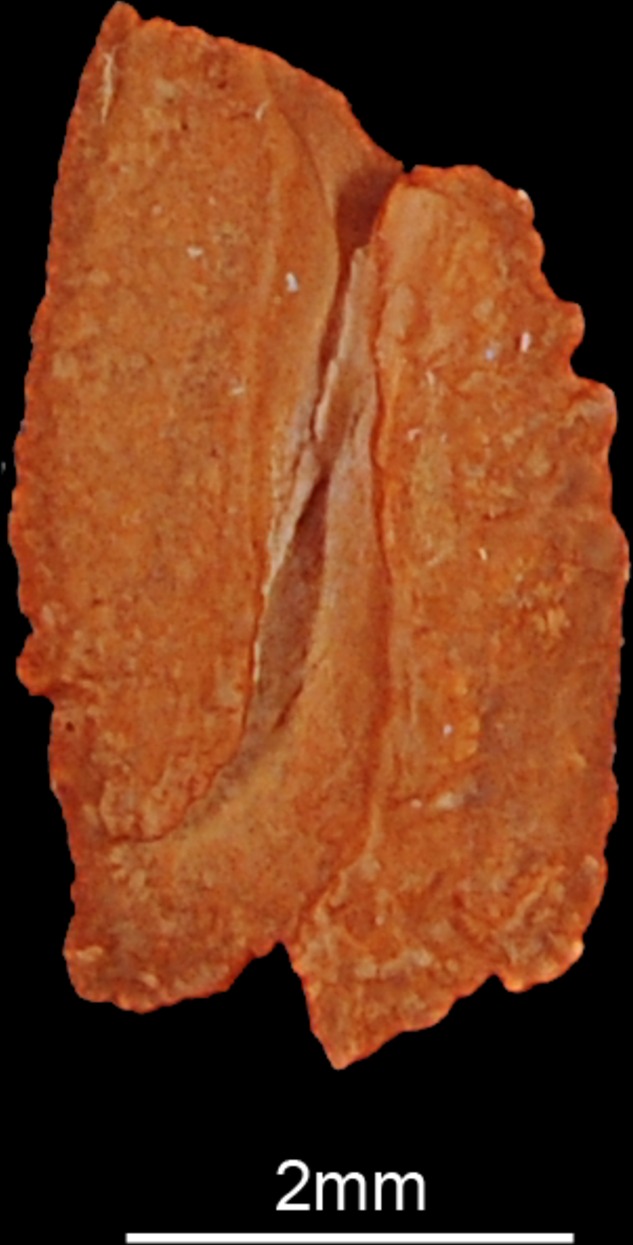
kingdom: Animalia
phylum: Chordata
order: Perciformes
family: Carangidae
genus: Carangoides
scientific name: Carangoides fulvoguttatus
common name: Yellowspotted trevally
